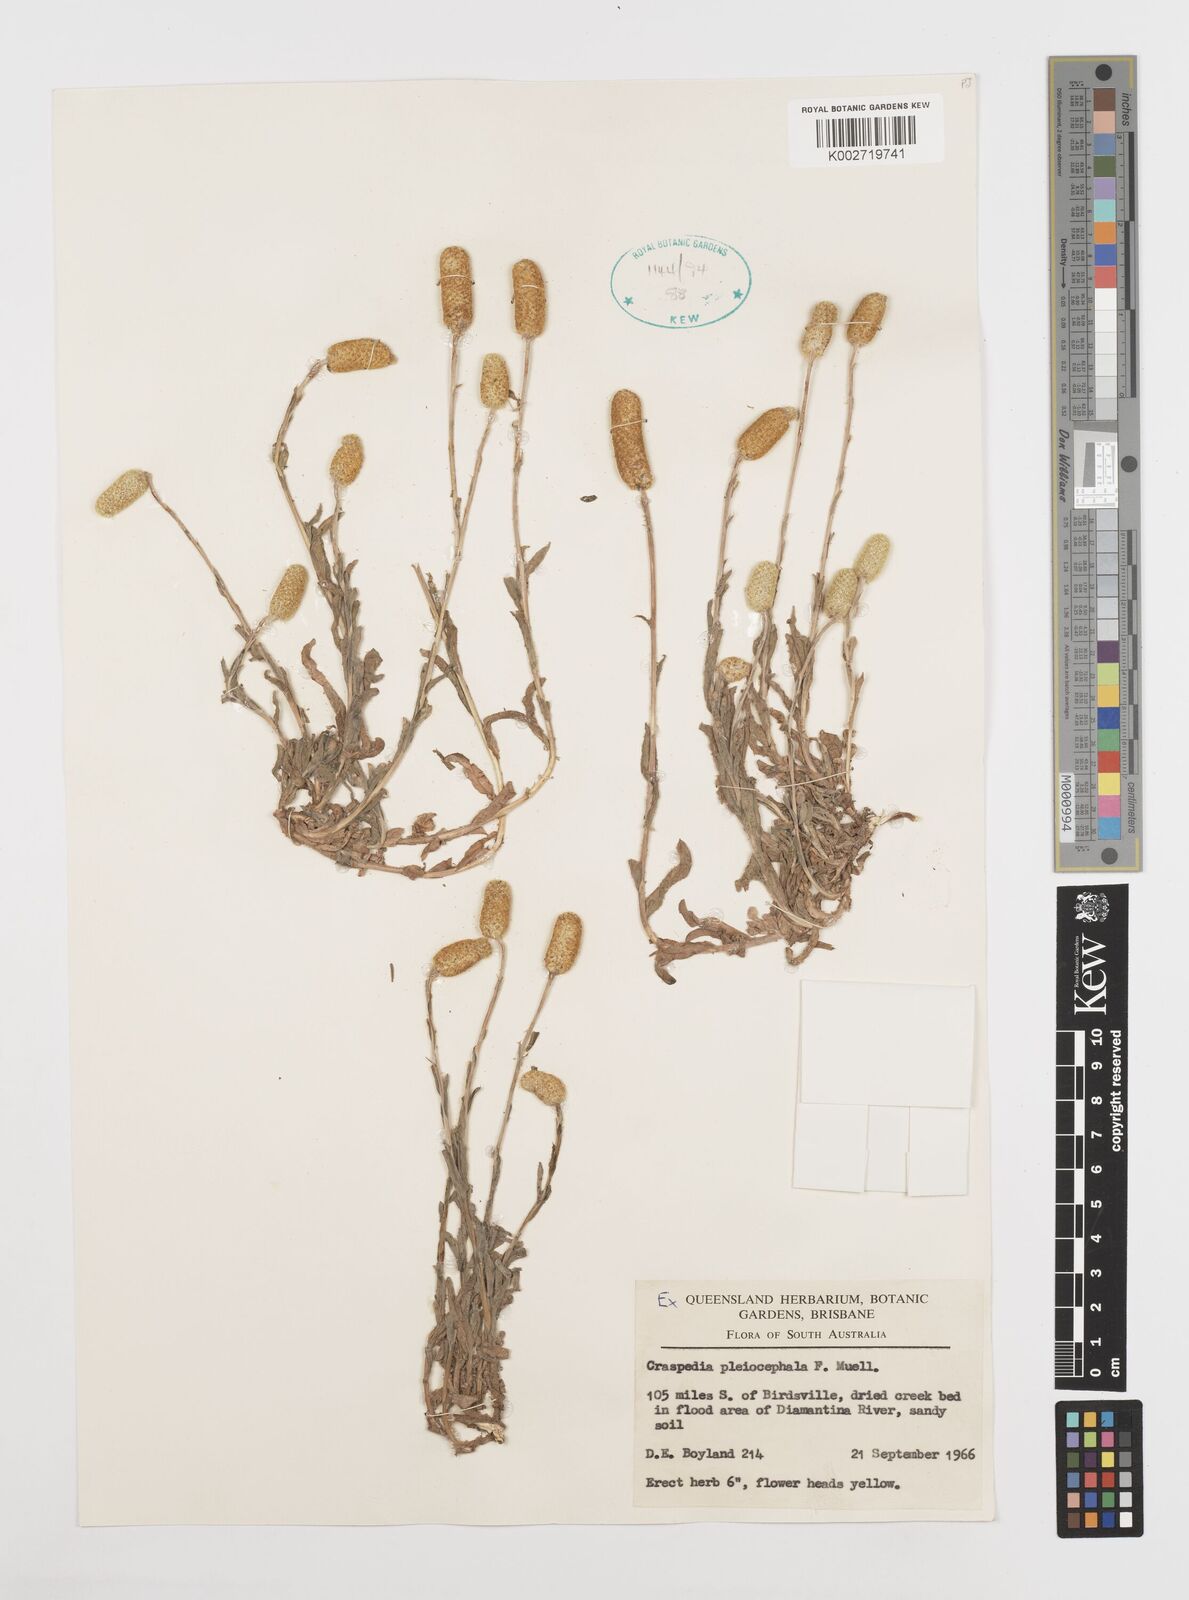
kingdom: Plantae
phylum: Tracheophyta
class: Magnoliopsida
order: Asterales
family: Asteraceae
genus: Pycnosorus
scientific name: Pycnosorus pleiocephalus
